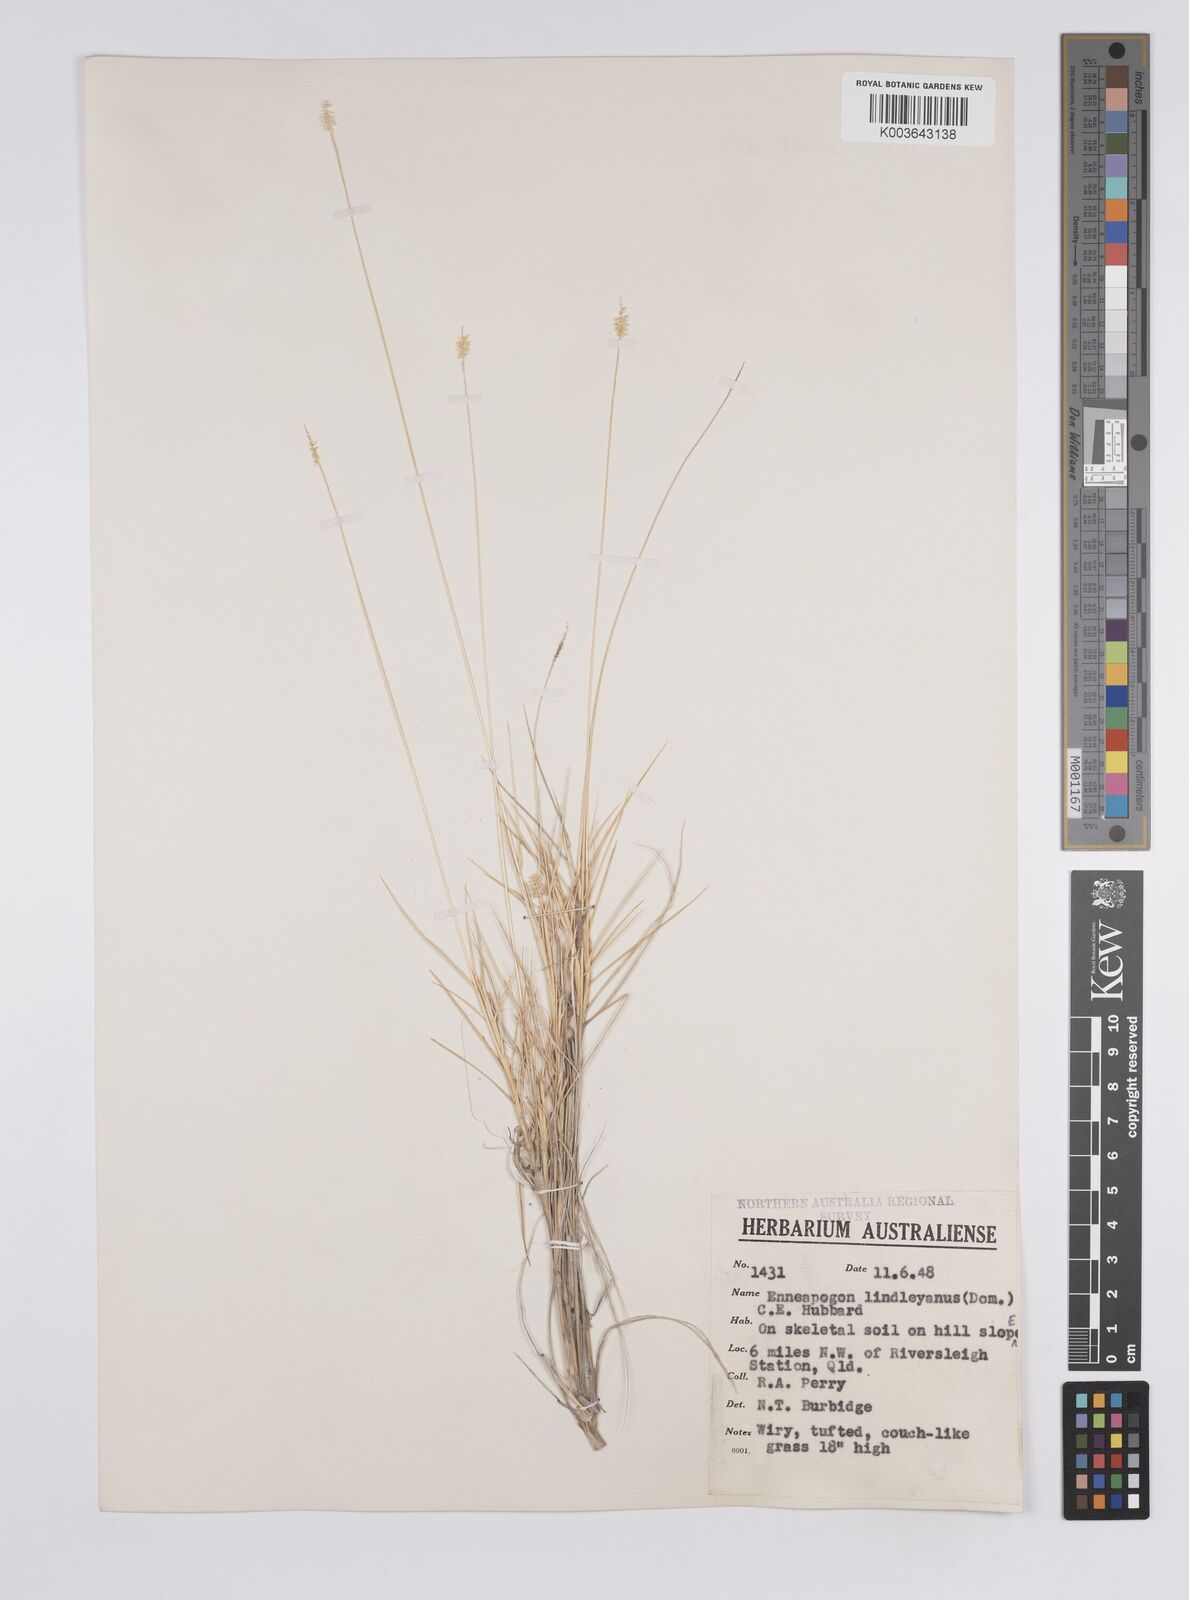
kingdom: Plantae
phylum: Tracheophyta
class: Liliopsida
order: Poales
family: Poaceae
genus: Enneapogon
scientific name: Enneapogon lindleyanus
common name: Conetop nineawn
